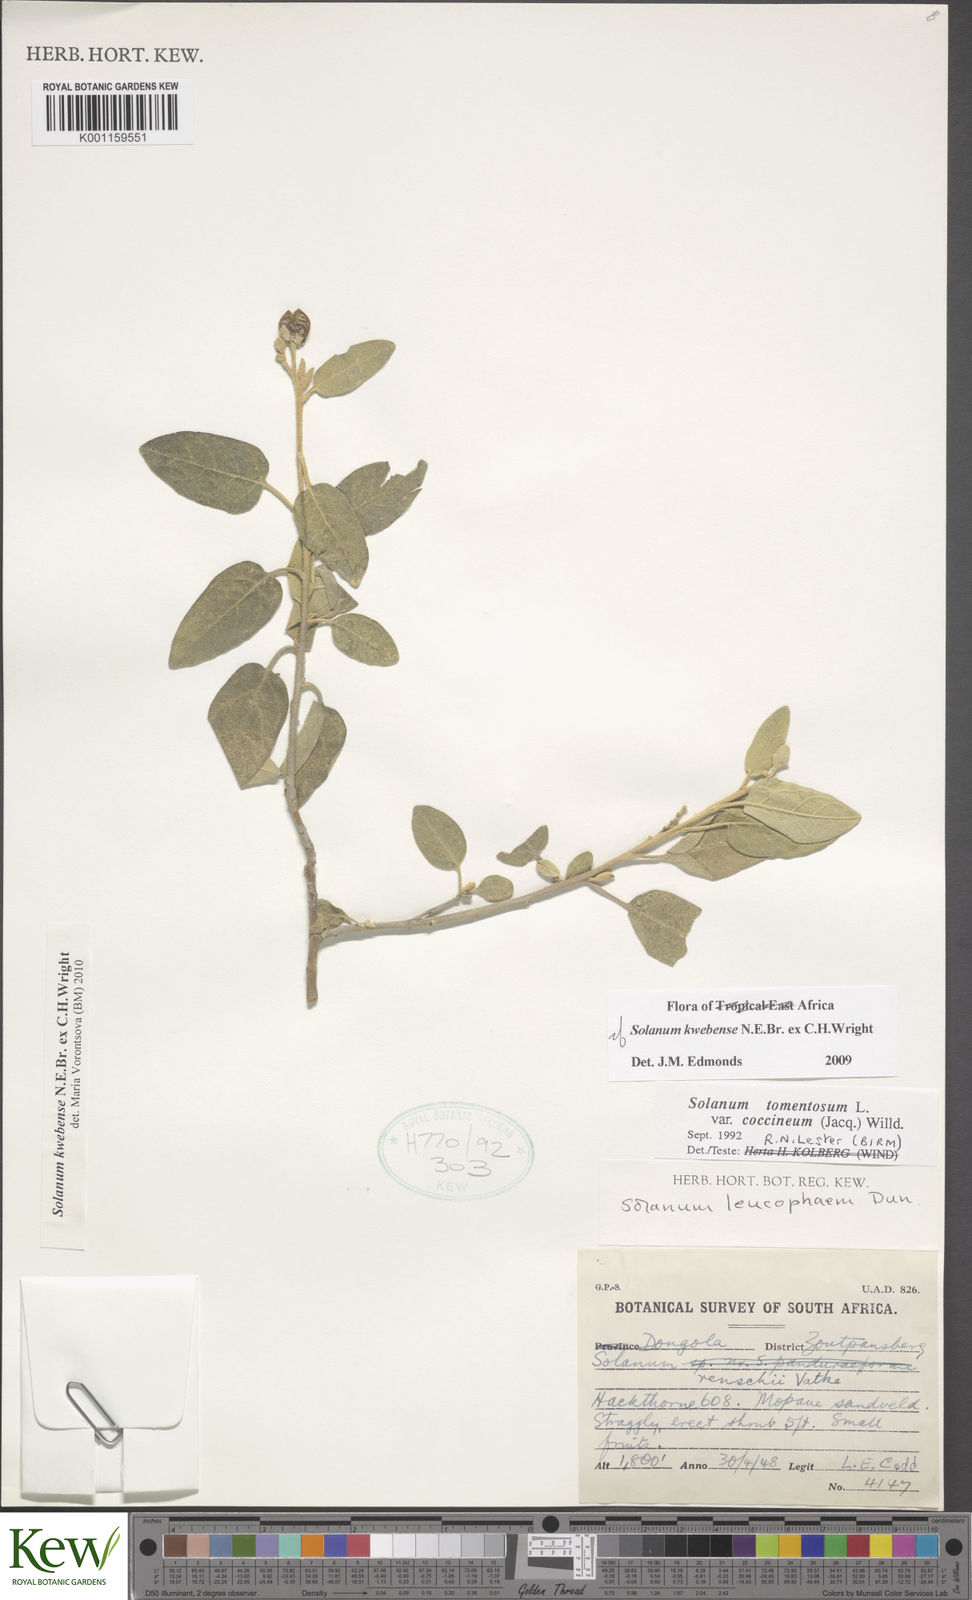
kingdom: Plantae
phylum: Tracheophyta
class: Magnoliopsida
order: Solanales
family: Solanaceae
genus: Solanum
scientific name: Solanum tettense
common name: Mozambique bitter apple
